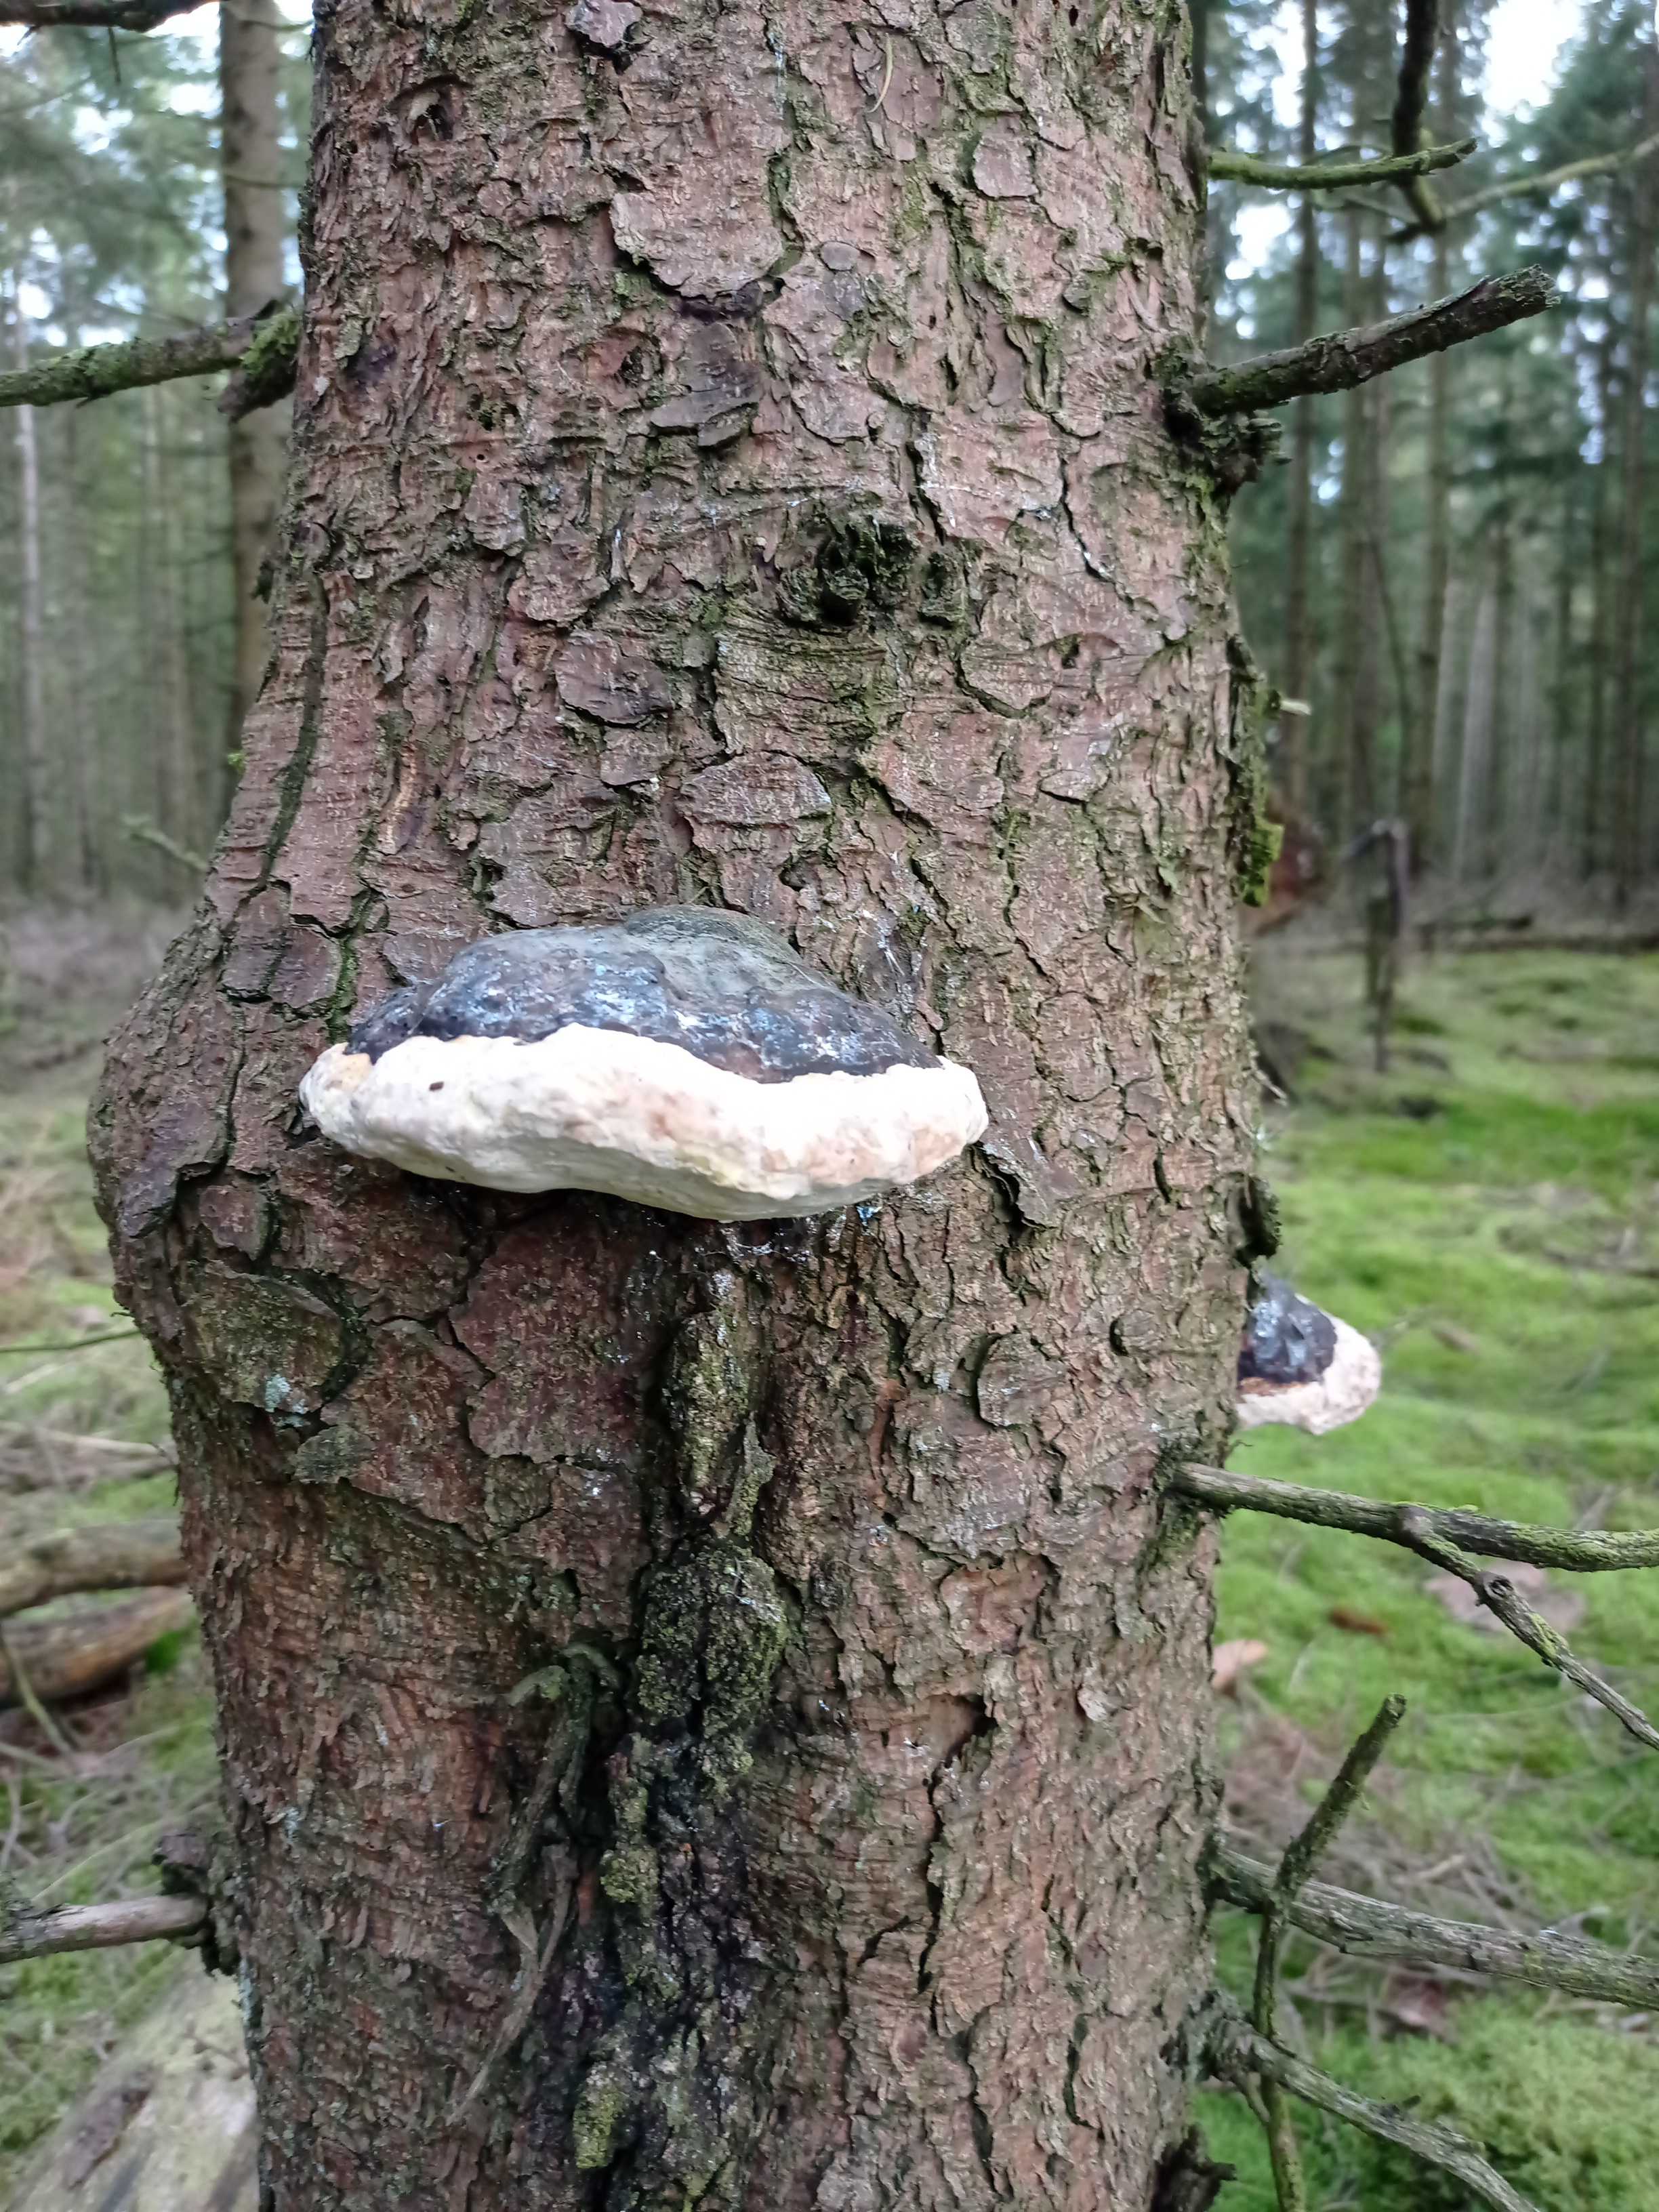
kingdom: Fungi
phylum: Basidiomycota
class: Agaricomycetes
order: Polyporales
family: Fomitopsidaceae
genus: Fomitopsis
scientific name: Fomitopsis pinicola
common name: randbæltet hovporesvamp
